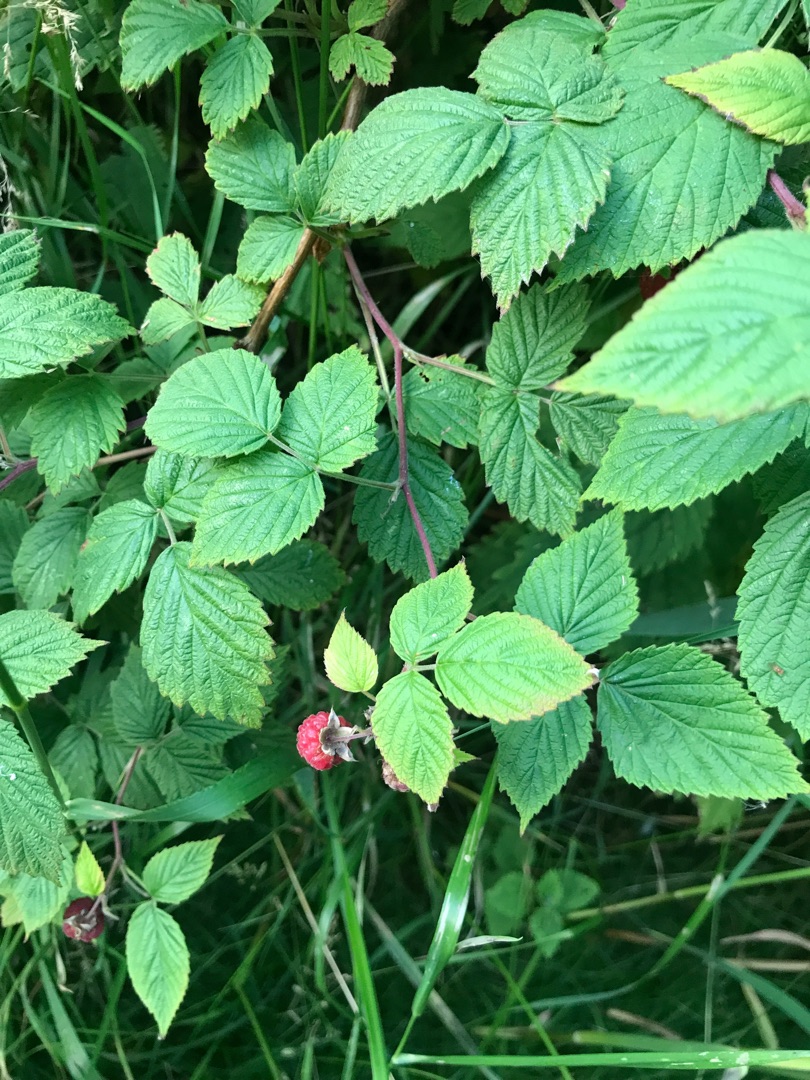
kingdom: Plantae
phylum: Tracheophyta
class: Magnoliopsida
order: Rosales
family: Rosaceae
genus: Rubus
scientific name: Rubus idaeus
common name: Hindbær
